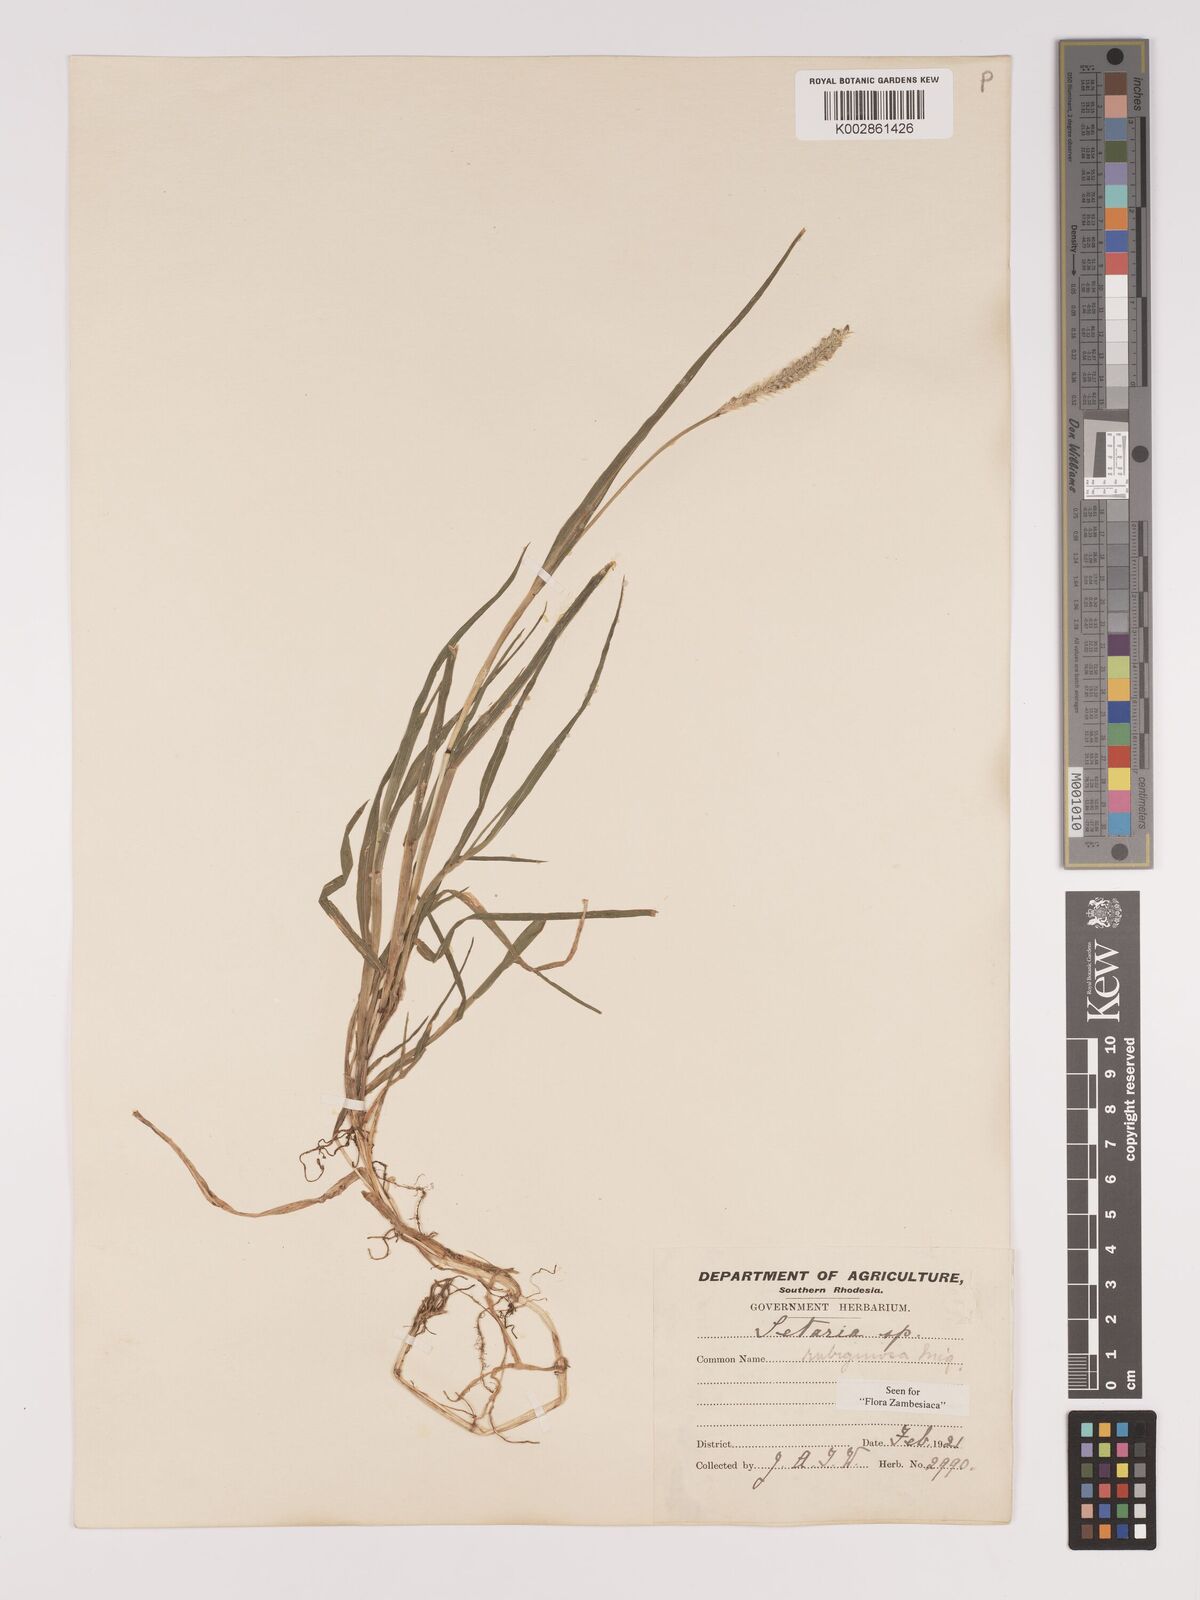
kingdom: Plantae
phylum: Tracheophyta
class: Liliopsida
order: Poales
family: Poaceae
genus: Setaria
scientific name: Setaria pumila
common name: Yellow bristle-grass
